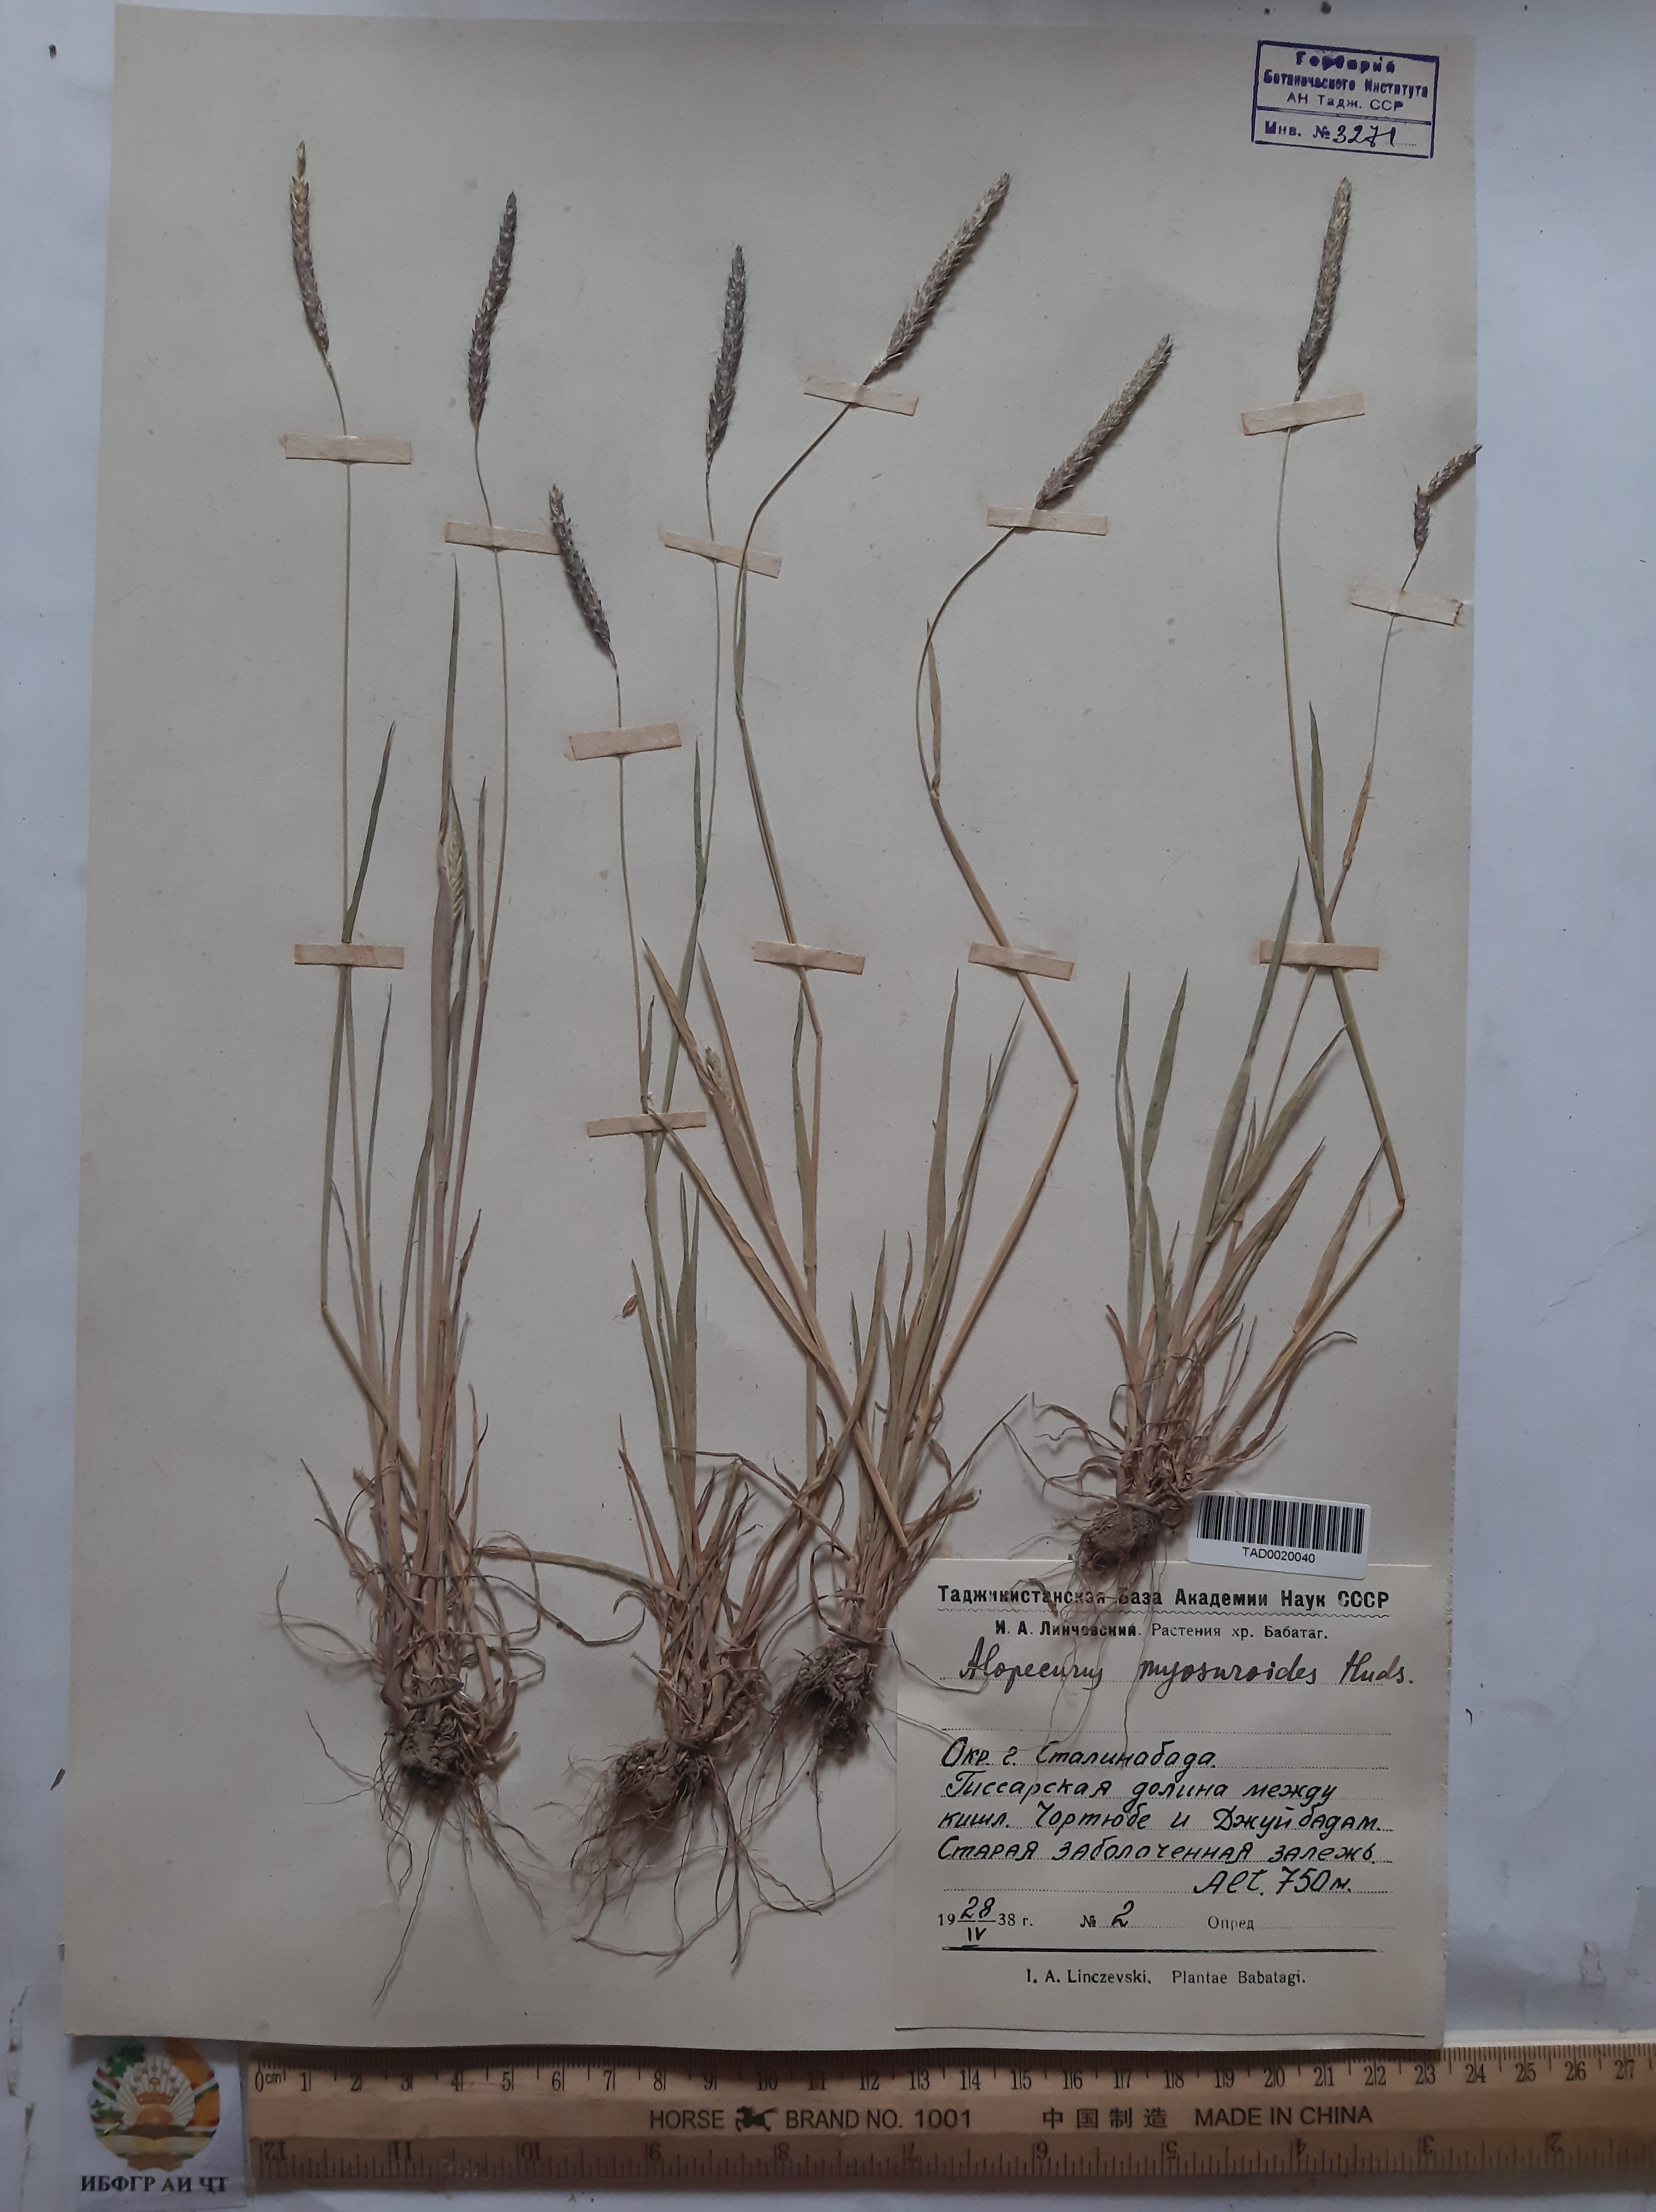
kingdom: Plantae
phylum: Tracheophyta
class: Liliopsida
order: Poales
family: Poaceae
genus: Alopecurus
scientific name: Alopecurus myosuroides
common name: Black-grass
